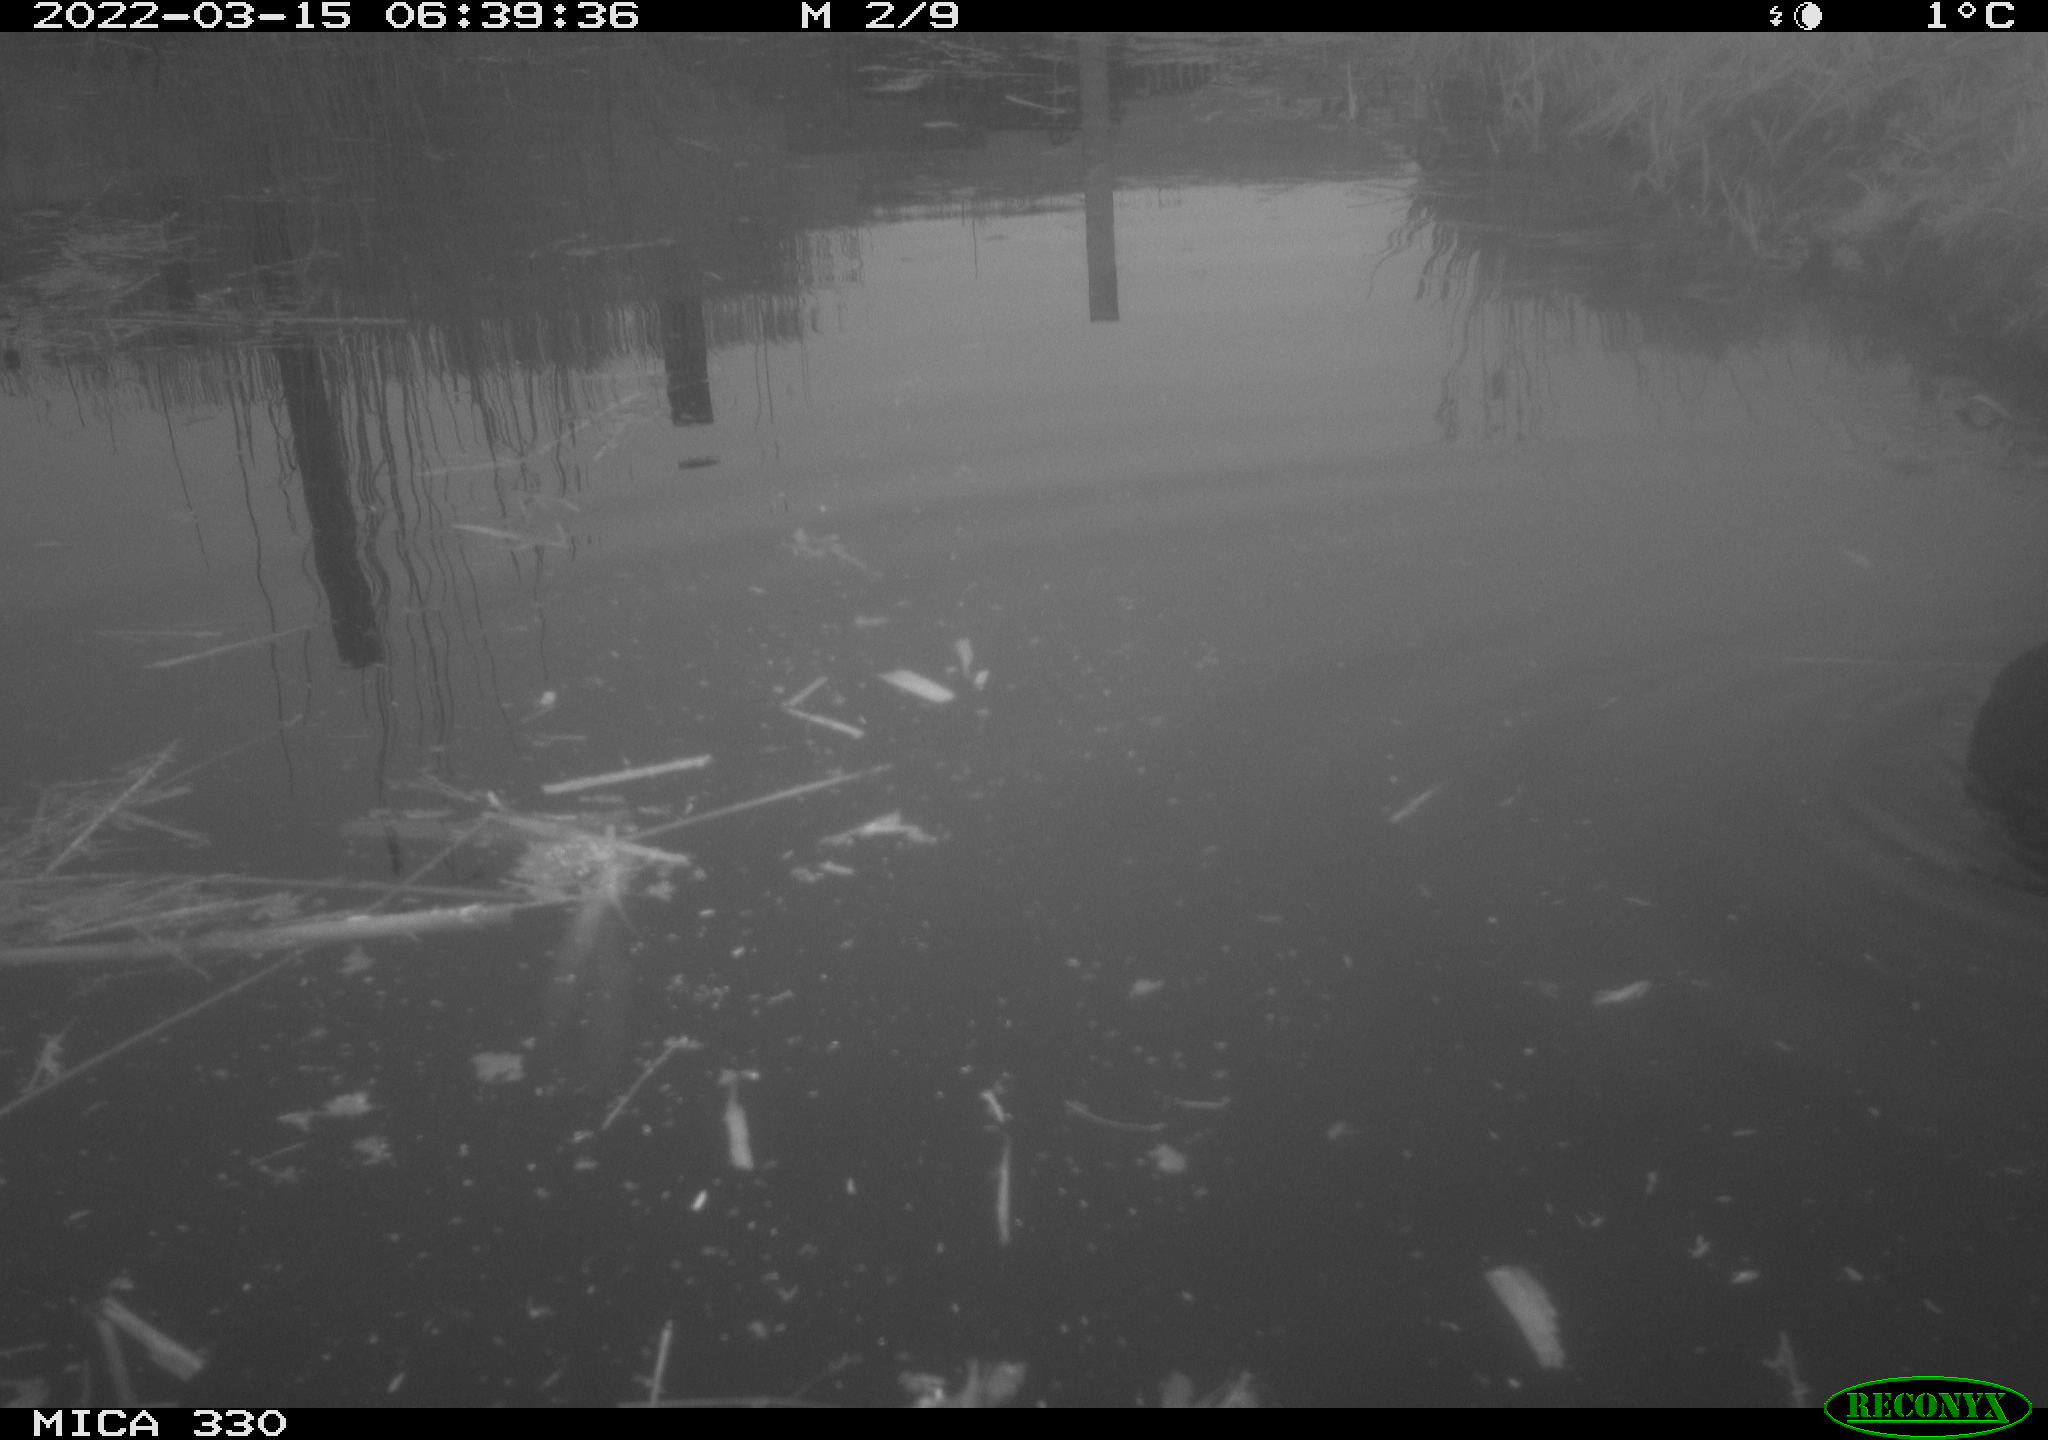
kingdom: Animalia
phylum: Chordata
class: Aves
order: Gruiformes
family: Rallidae
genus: Fulica
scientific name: Fulica atra
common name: Eurasian coot
